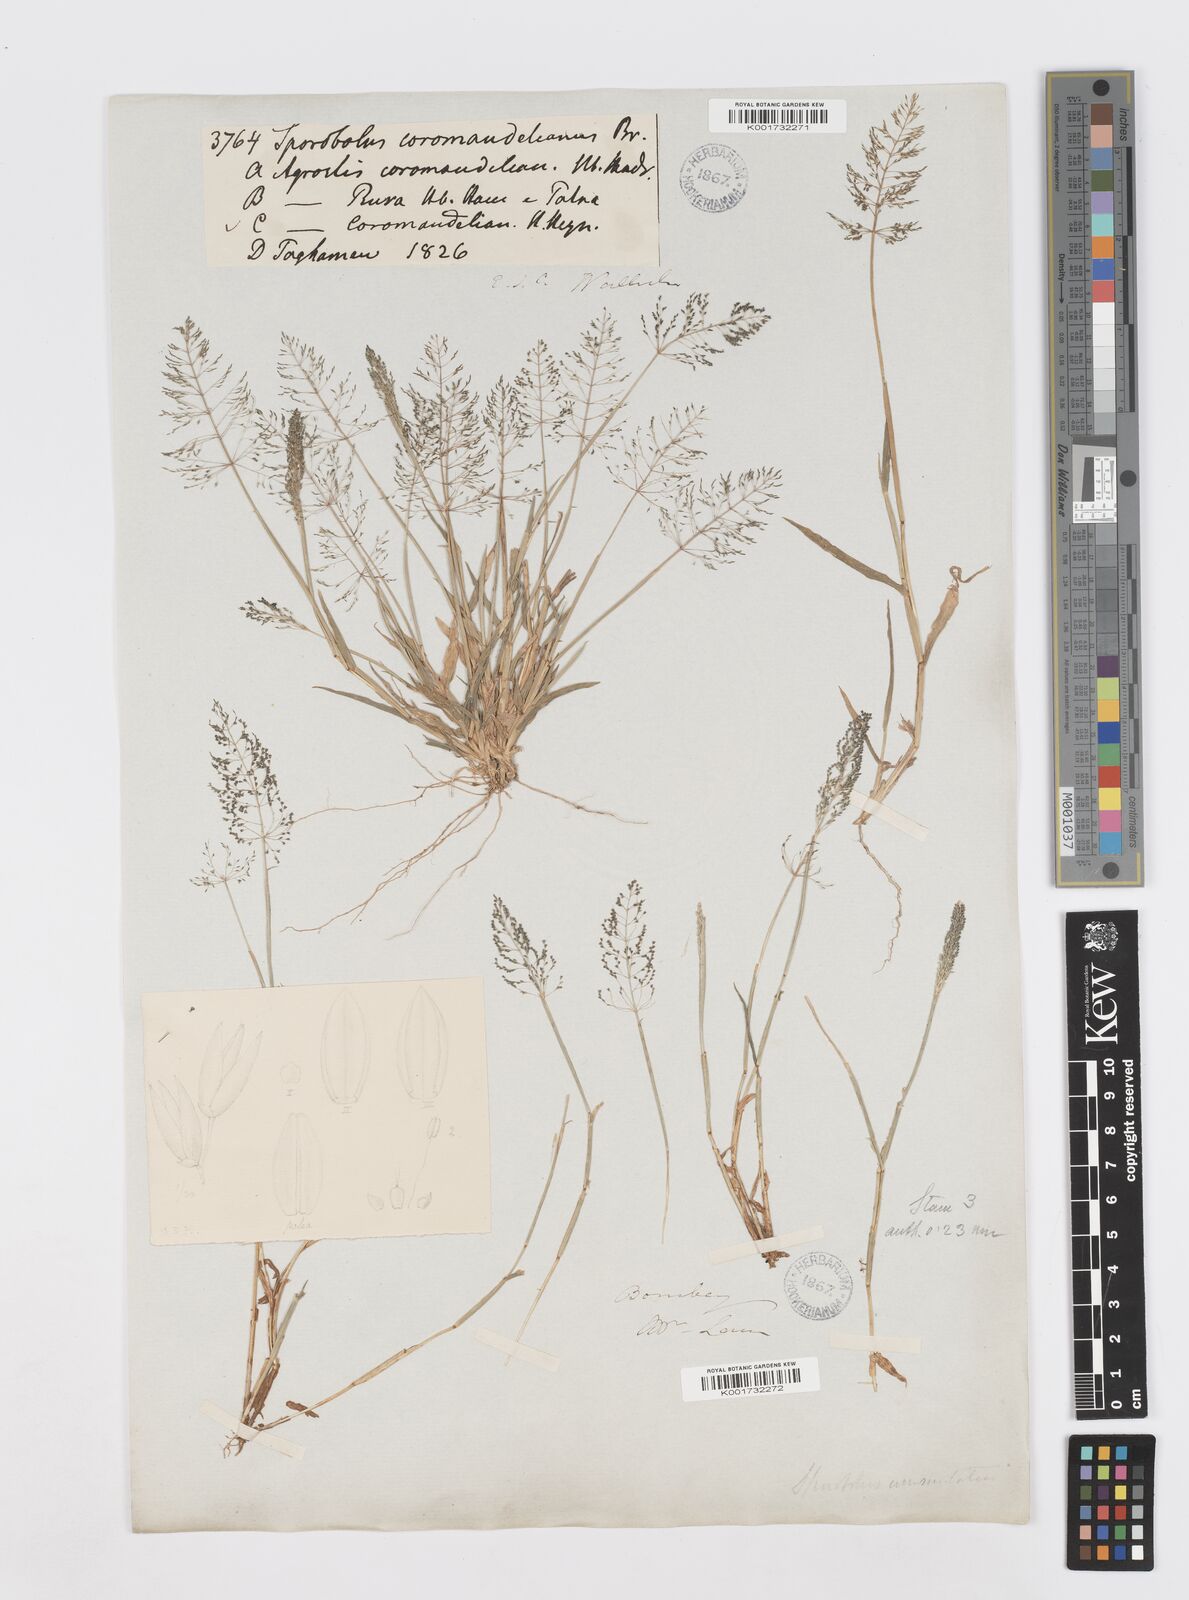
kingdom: Plantae
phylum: Tracheophyta
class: Liliopsida
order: Poales
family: Poaceae
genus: Sporobolus
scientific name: Sporobolus coromandelianus
